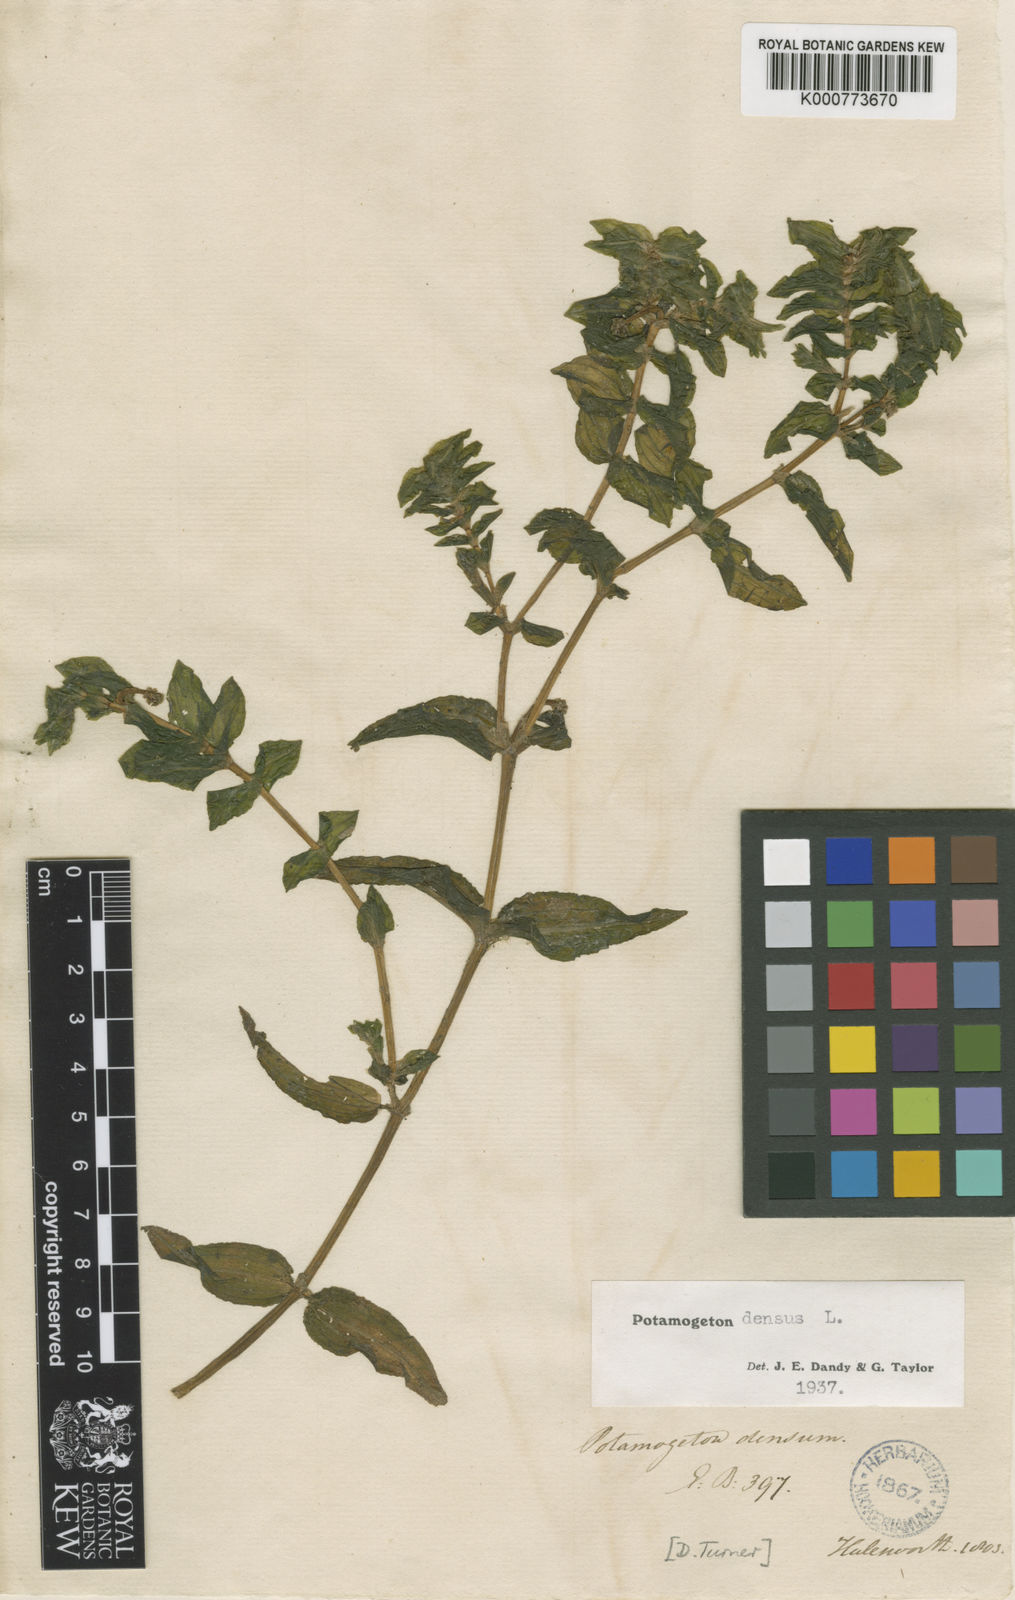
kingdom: Plantae
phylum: Tracheophyta
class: Liliopsida
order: Alismatales
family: Potamogetonaceae
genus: Groenlandia
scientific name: Groenlandia densa
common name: Opposite-leaved pondweed
